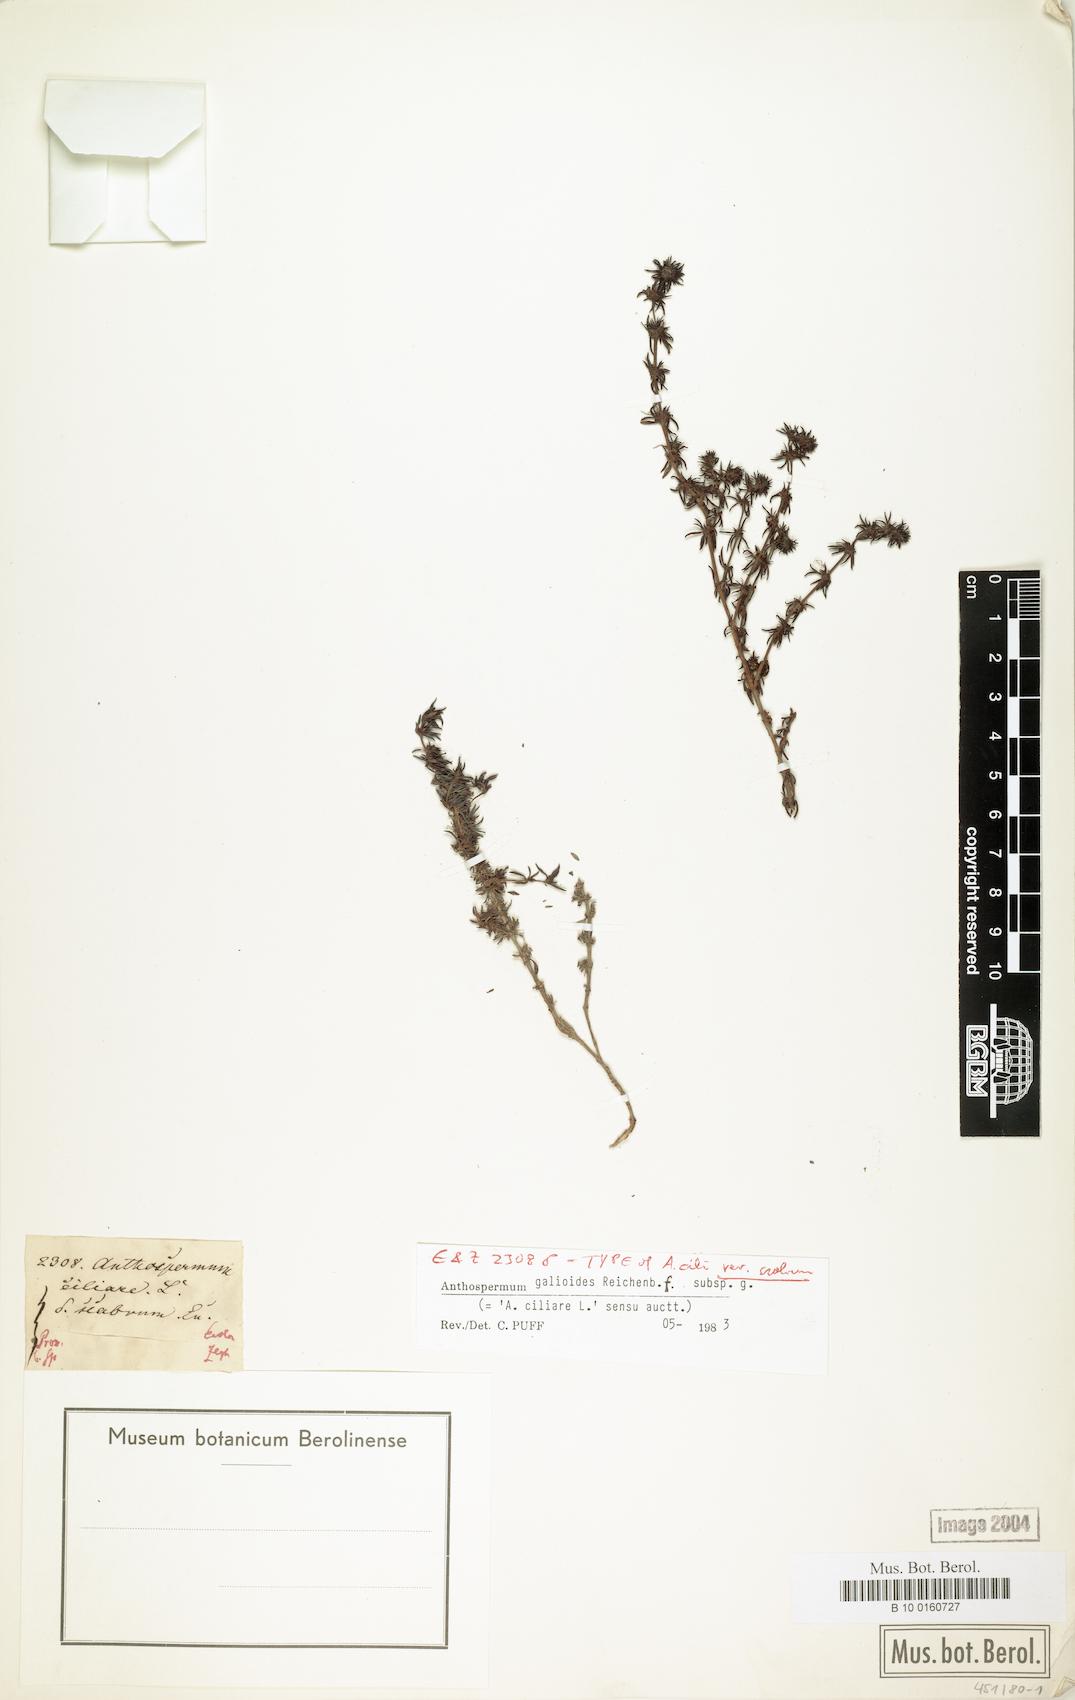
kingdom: Plantae
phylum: Tracheophyta
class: Magnoliopsida
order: Gentianales
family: Rubiaceae
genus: Anthospermum
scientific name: Anthospermum galioides
